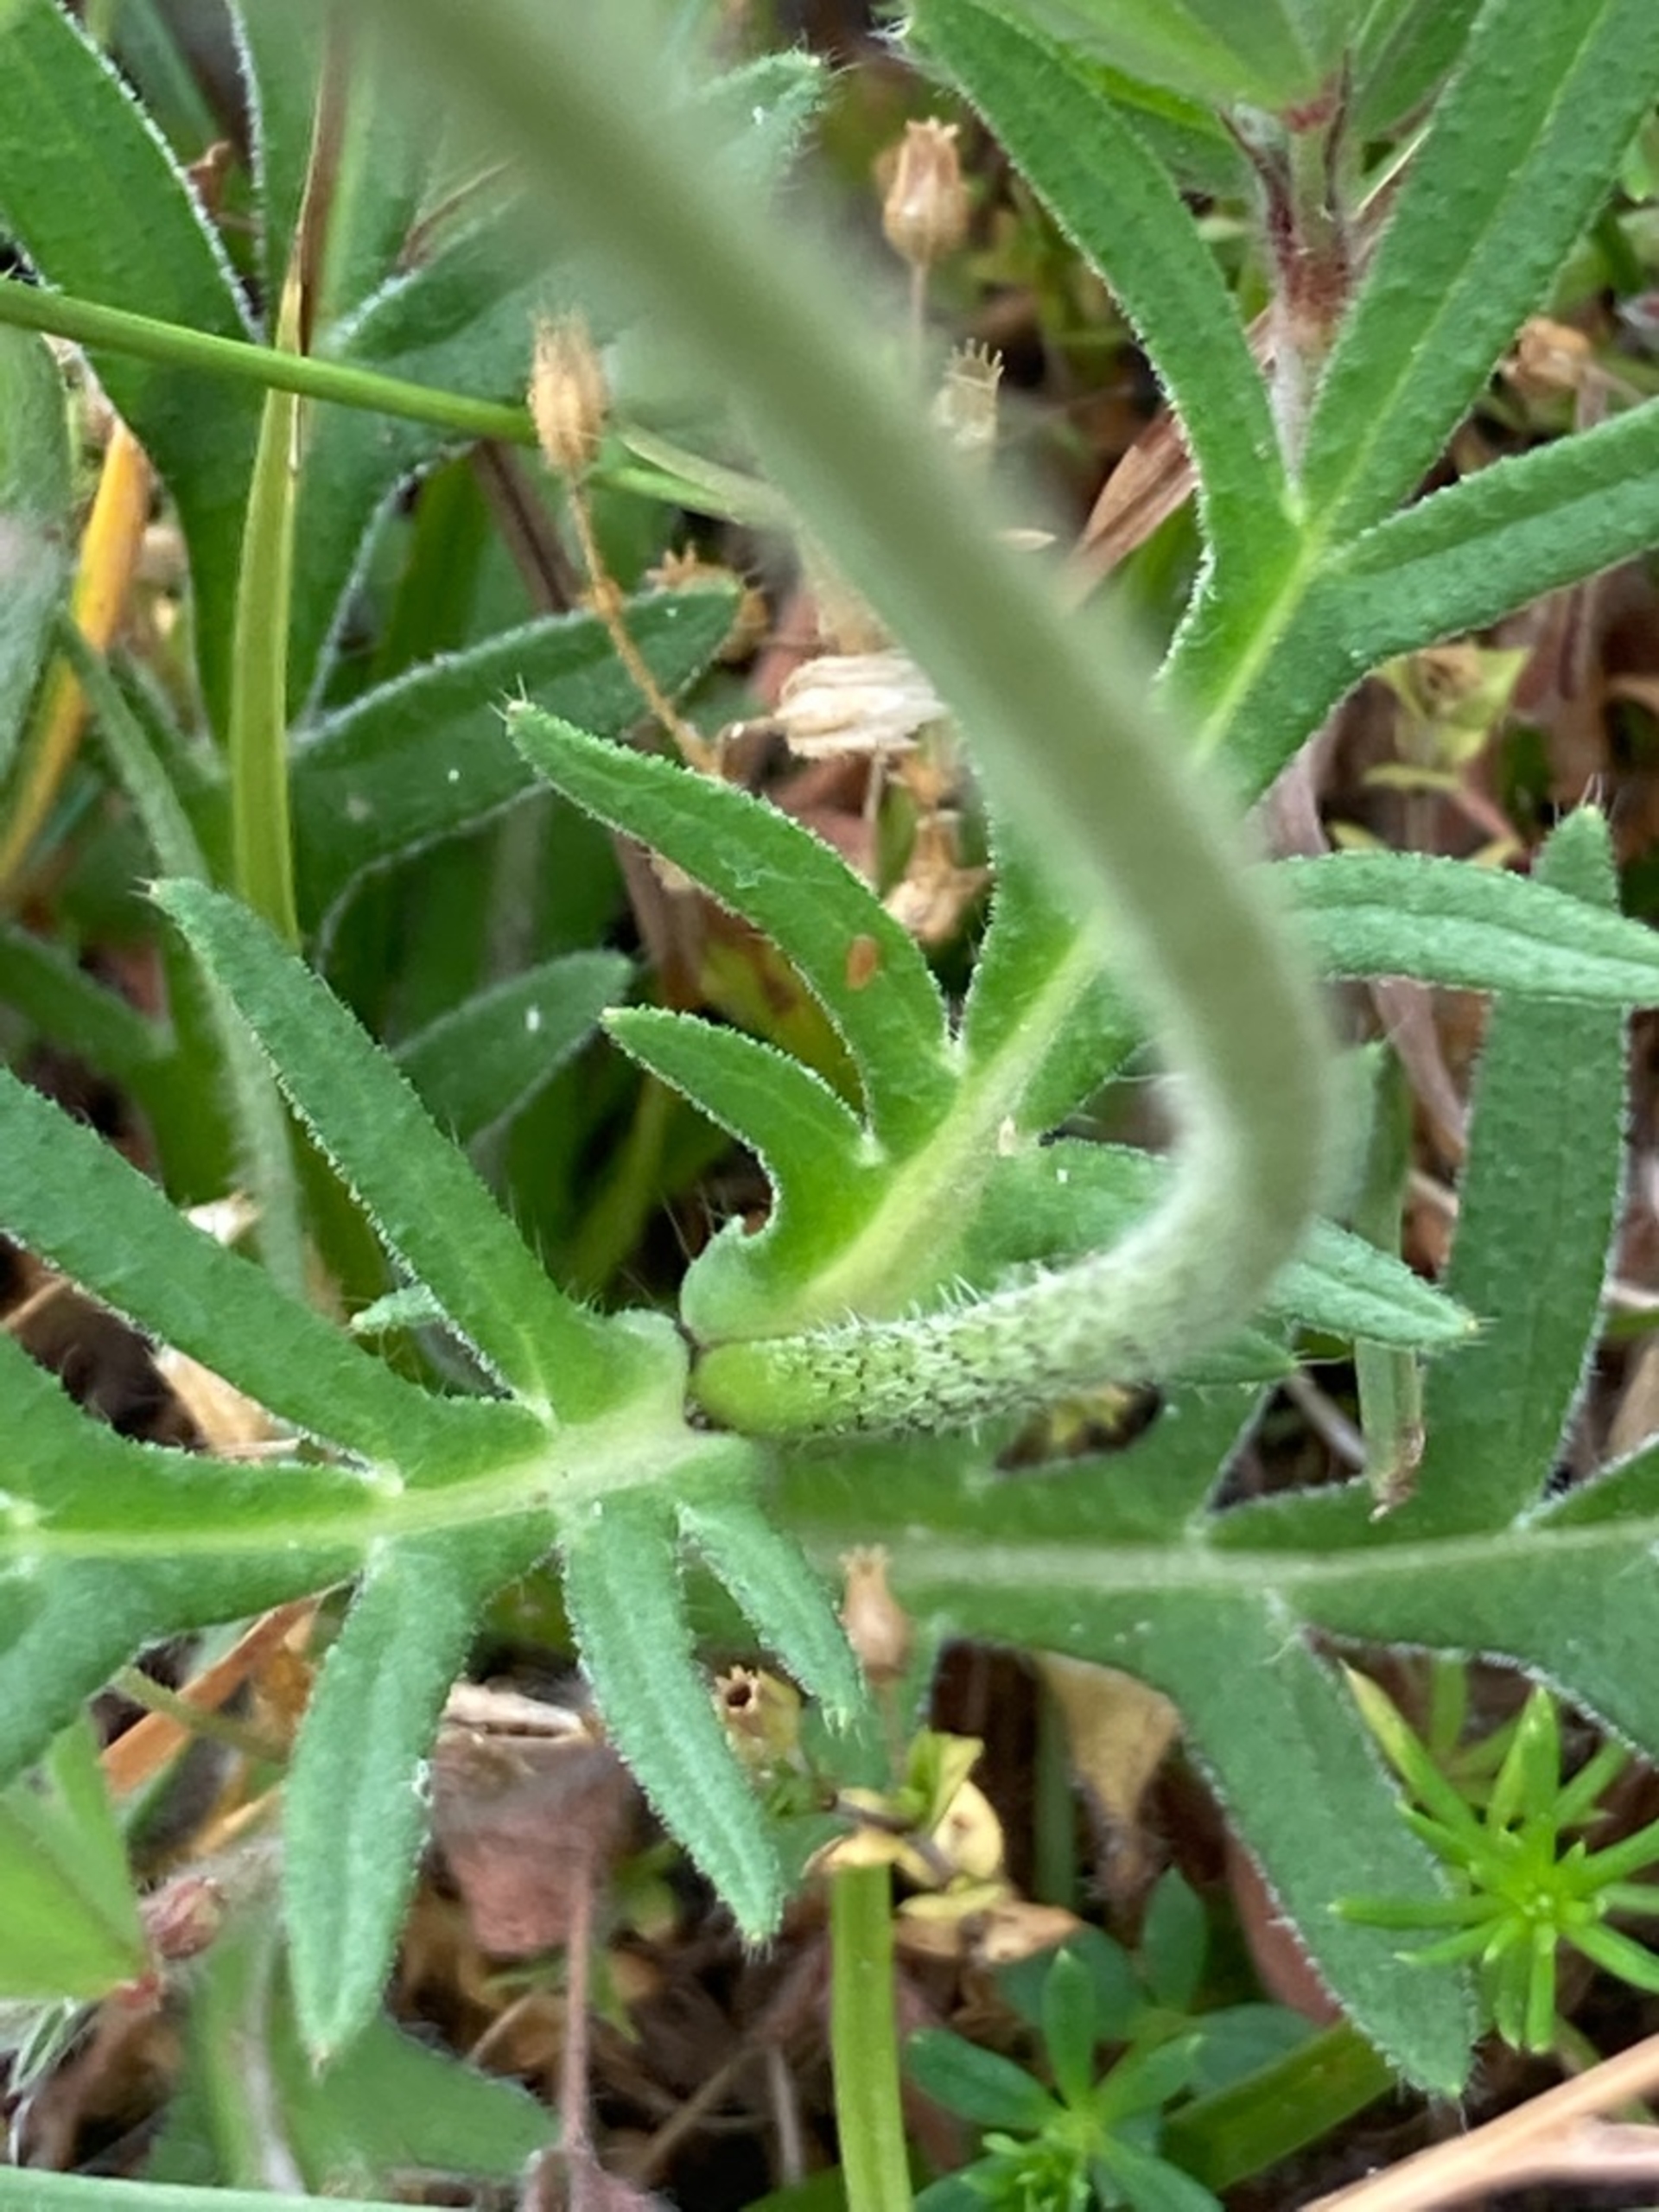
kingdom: Plantae
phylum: Tracheophyta
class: Magnoliopsida
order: Dipsacales
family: Caprifoliaceae
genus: Knautia
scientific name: Knautia arvensis
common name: Blåhat
